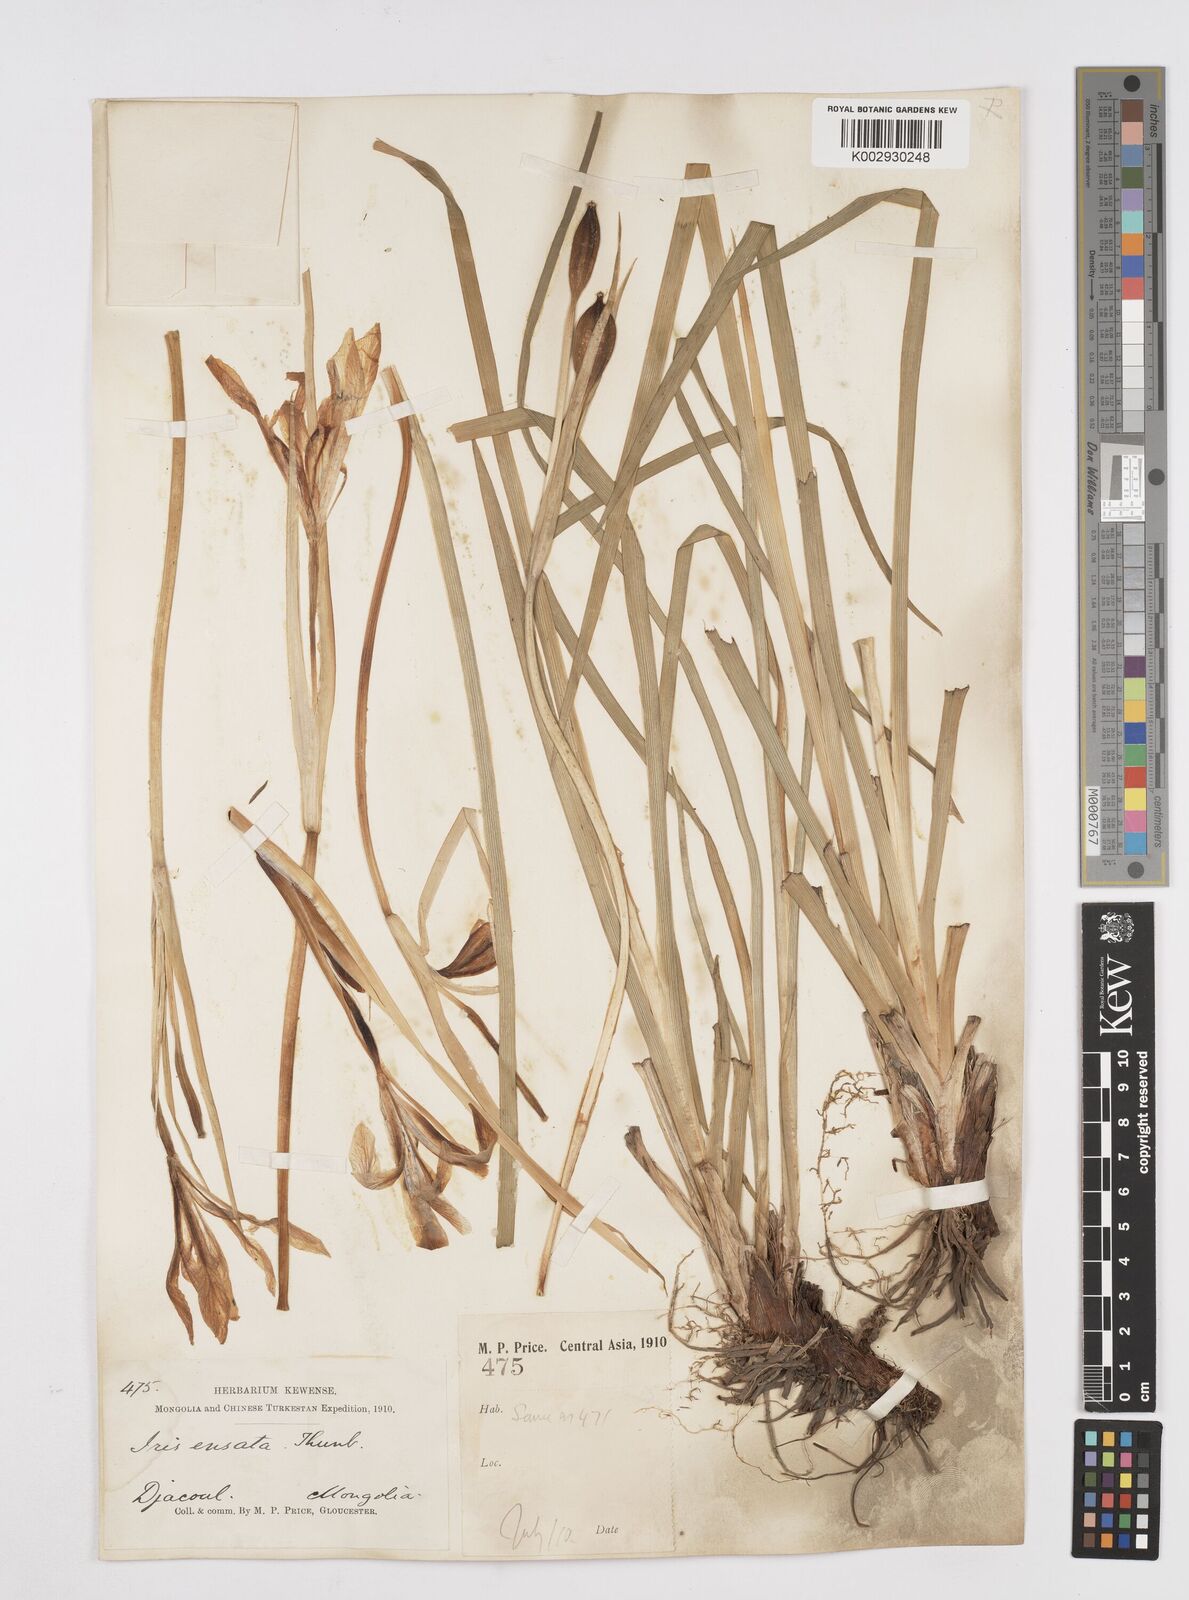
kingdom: Plantae
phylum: Tracheophyta
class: Liliopsida
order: Asparagales
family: Iridaceae
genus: Iris
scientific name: Iris lactea
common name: White-flower chinese iris
